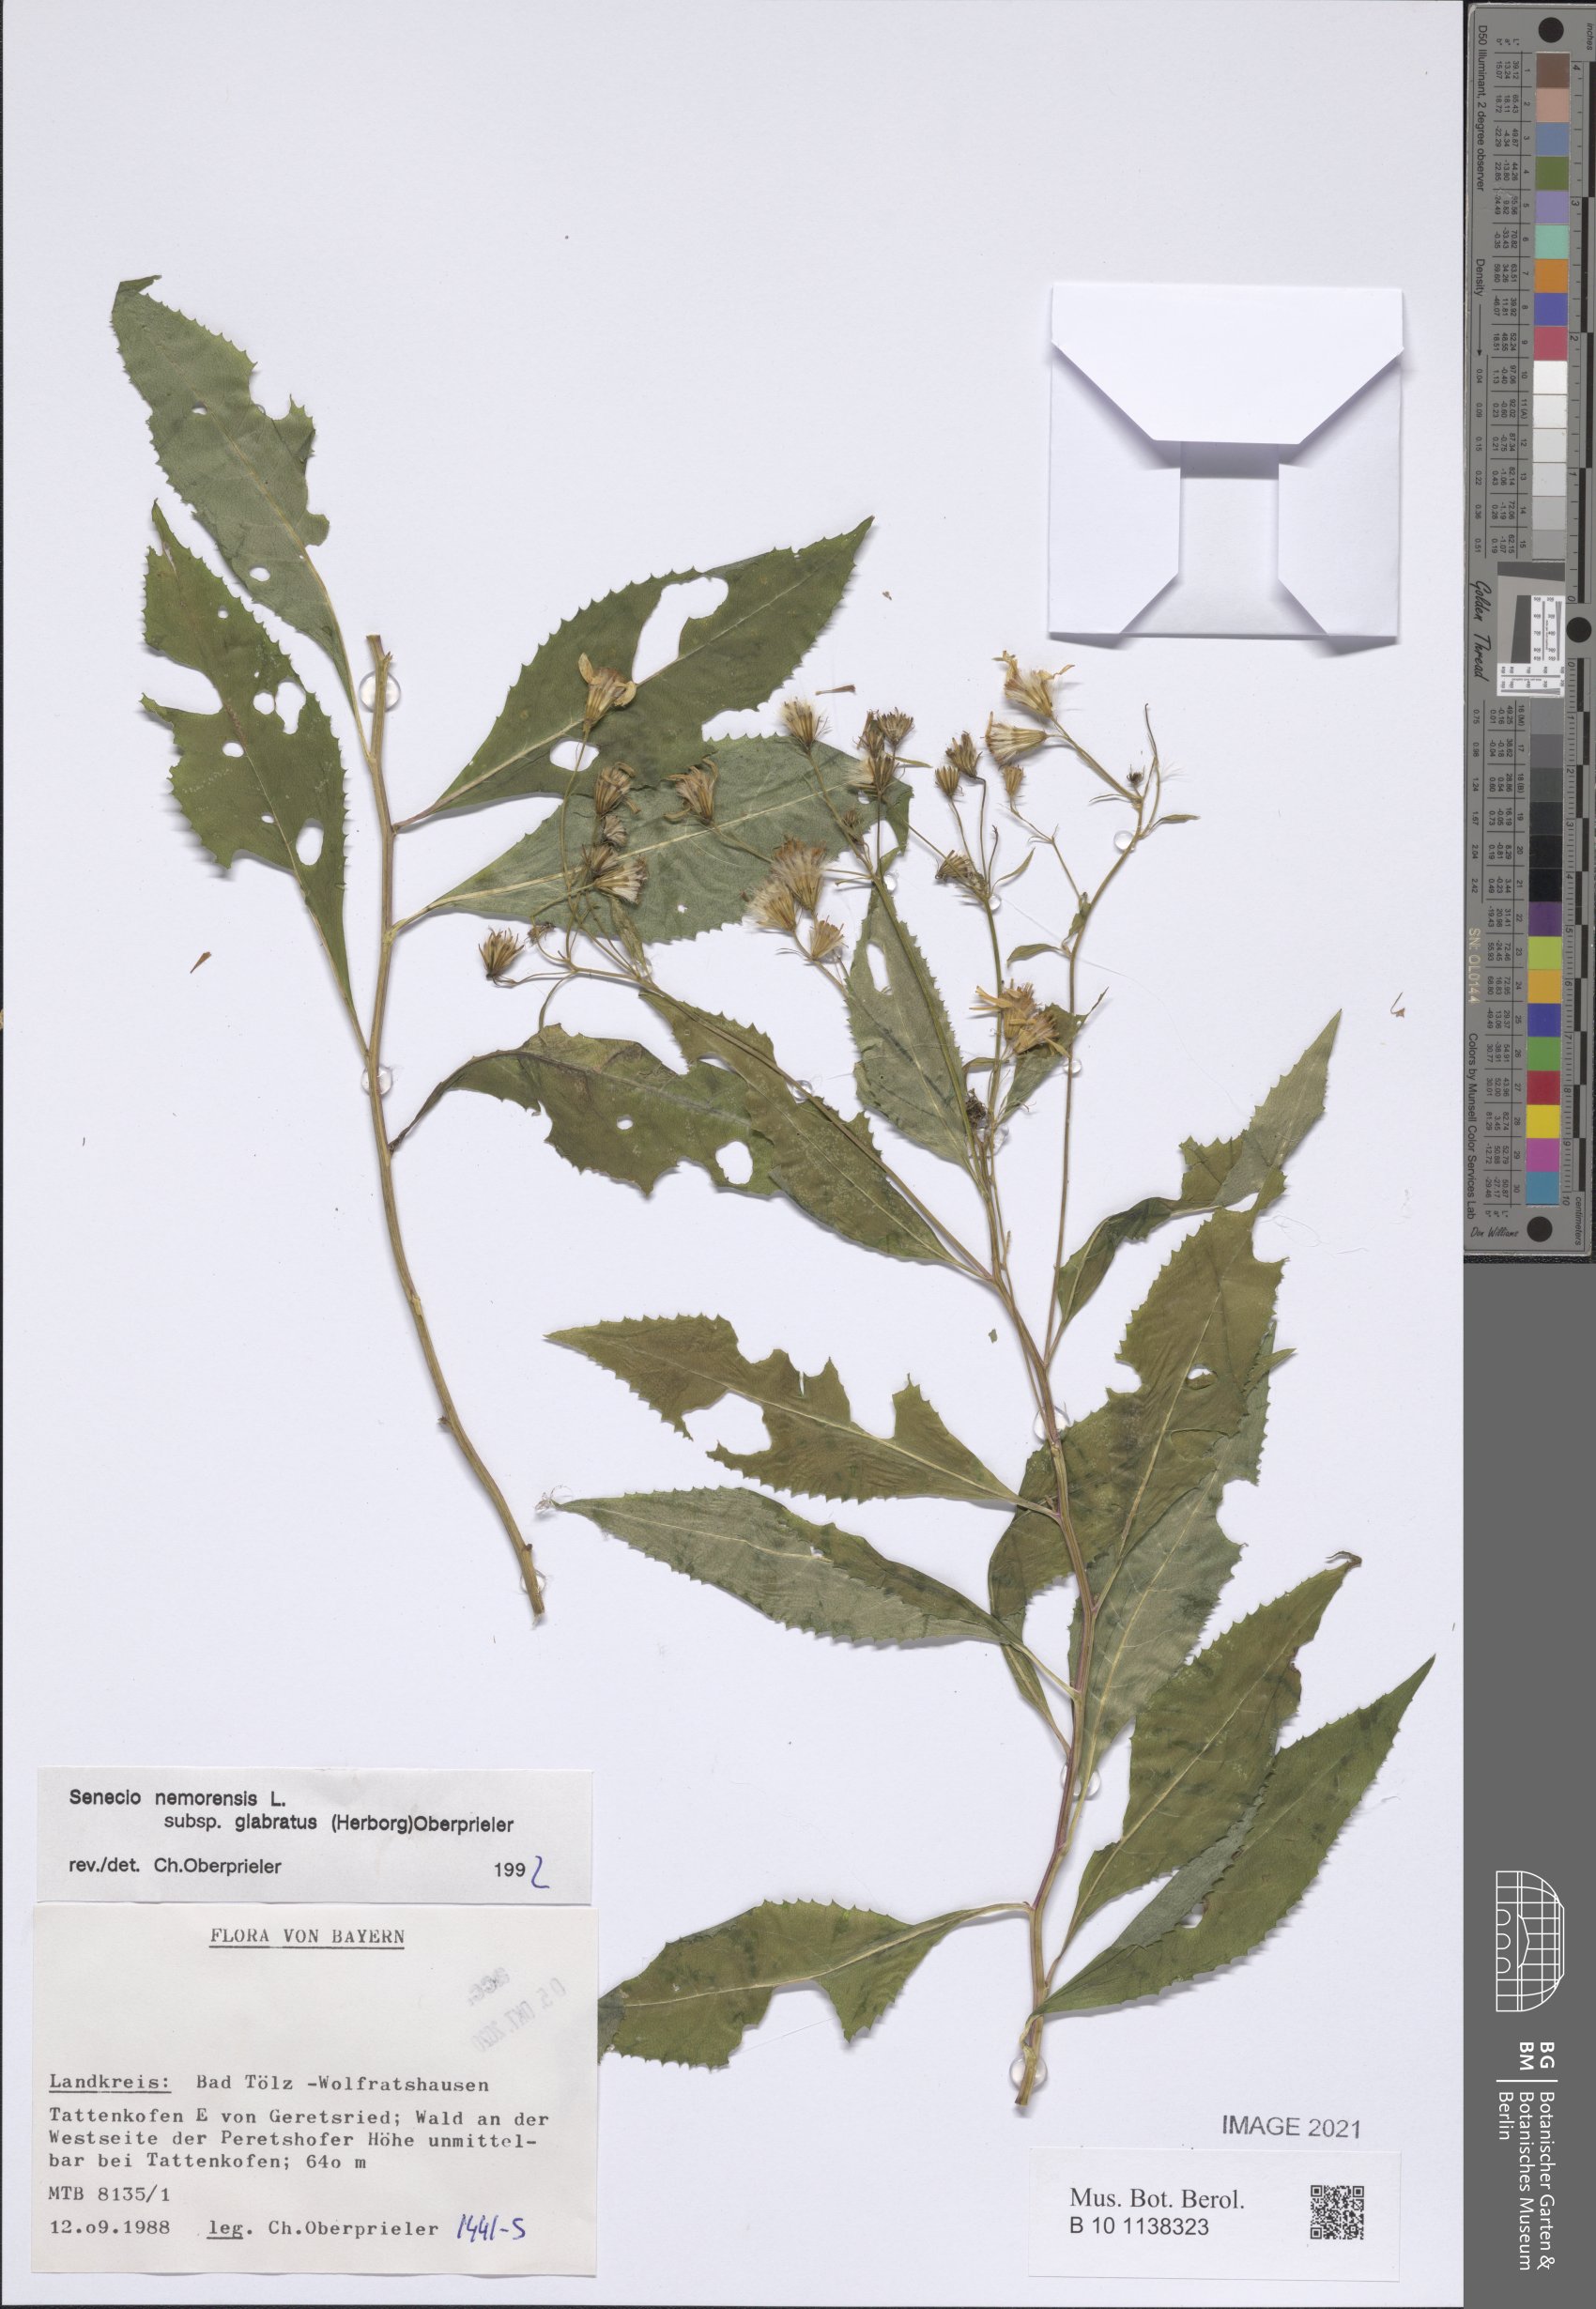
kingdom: Plantae
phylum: Tracheophyta
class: Magnoliopsida
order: Asterales
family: Asteraceae
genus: Senecio
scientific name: Senecio germanicus
